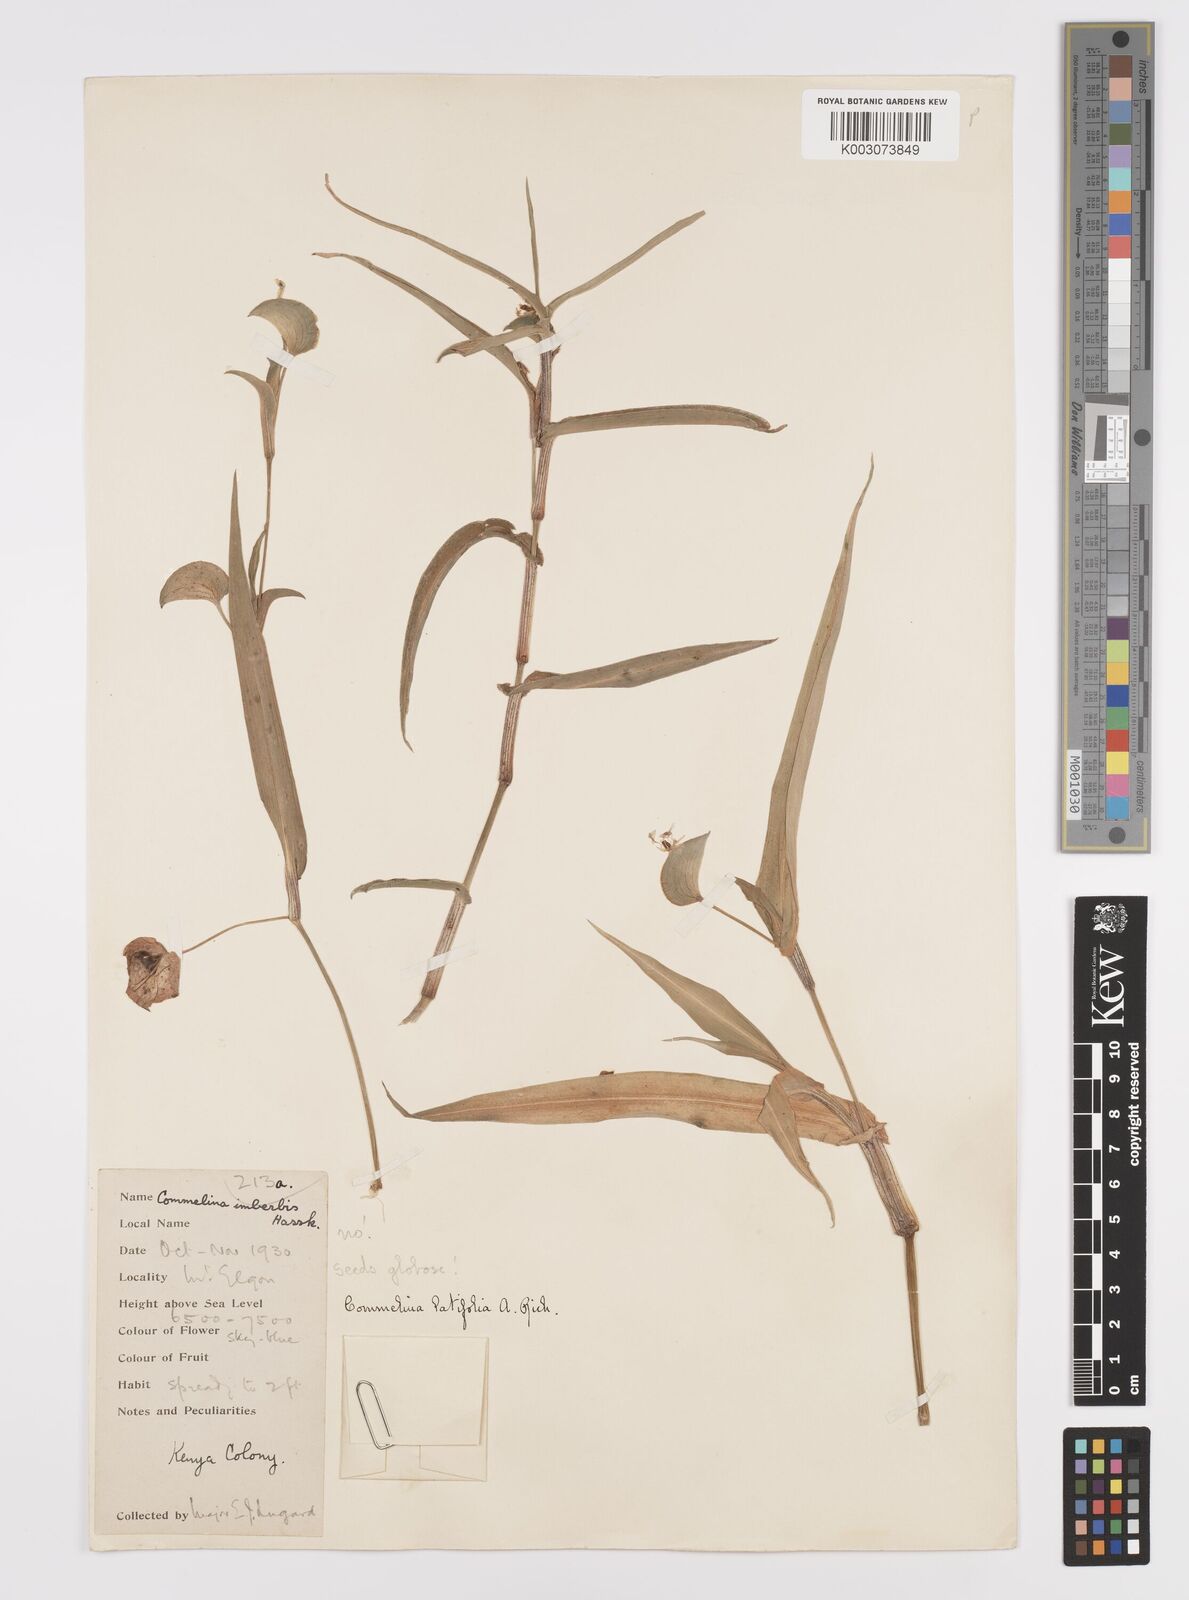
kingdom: Plantae
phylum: Tracheophyta
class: Liliopsida
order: Commelinales
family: Commelinaceae
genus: Commelina
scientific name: Commelina latifolia
